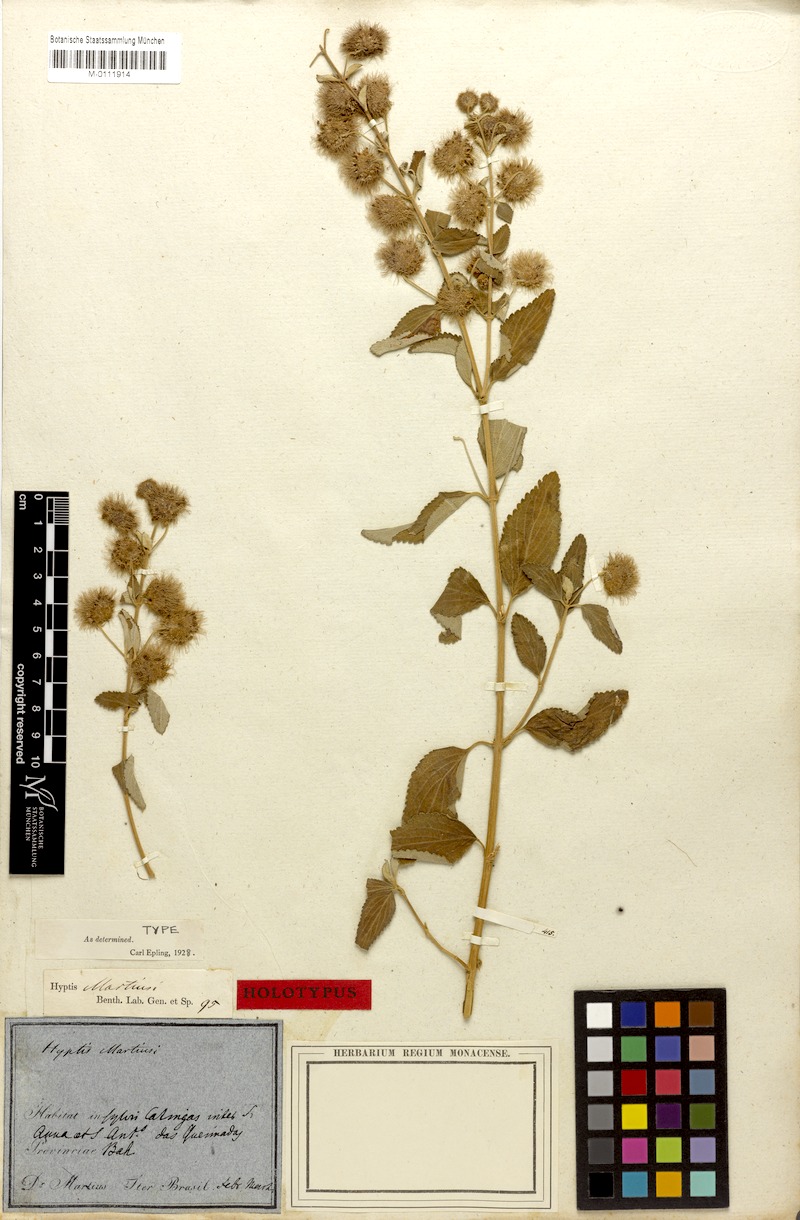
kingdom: Plantae
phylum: Tracheophyta
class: Magnoliopsida
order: Lamiales
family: Lamiaceae
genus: Medusantha
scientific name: Medusantha martiusii
